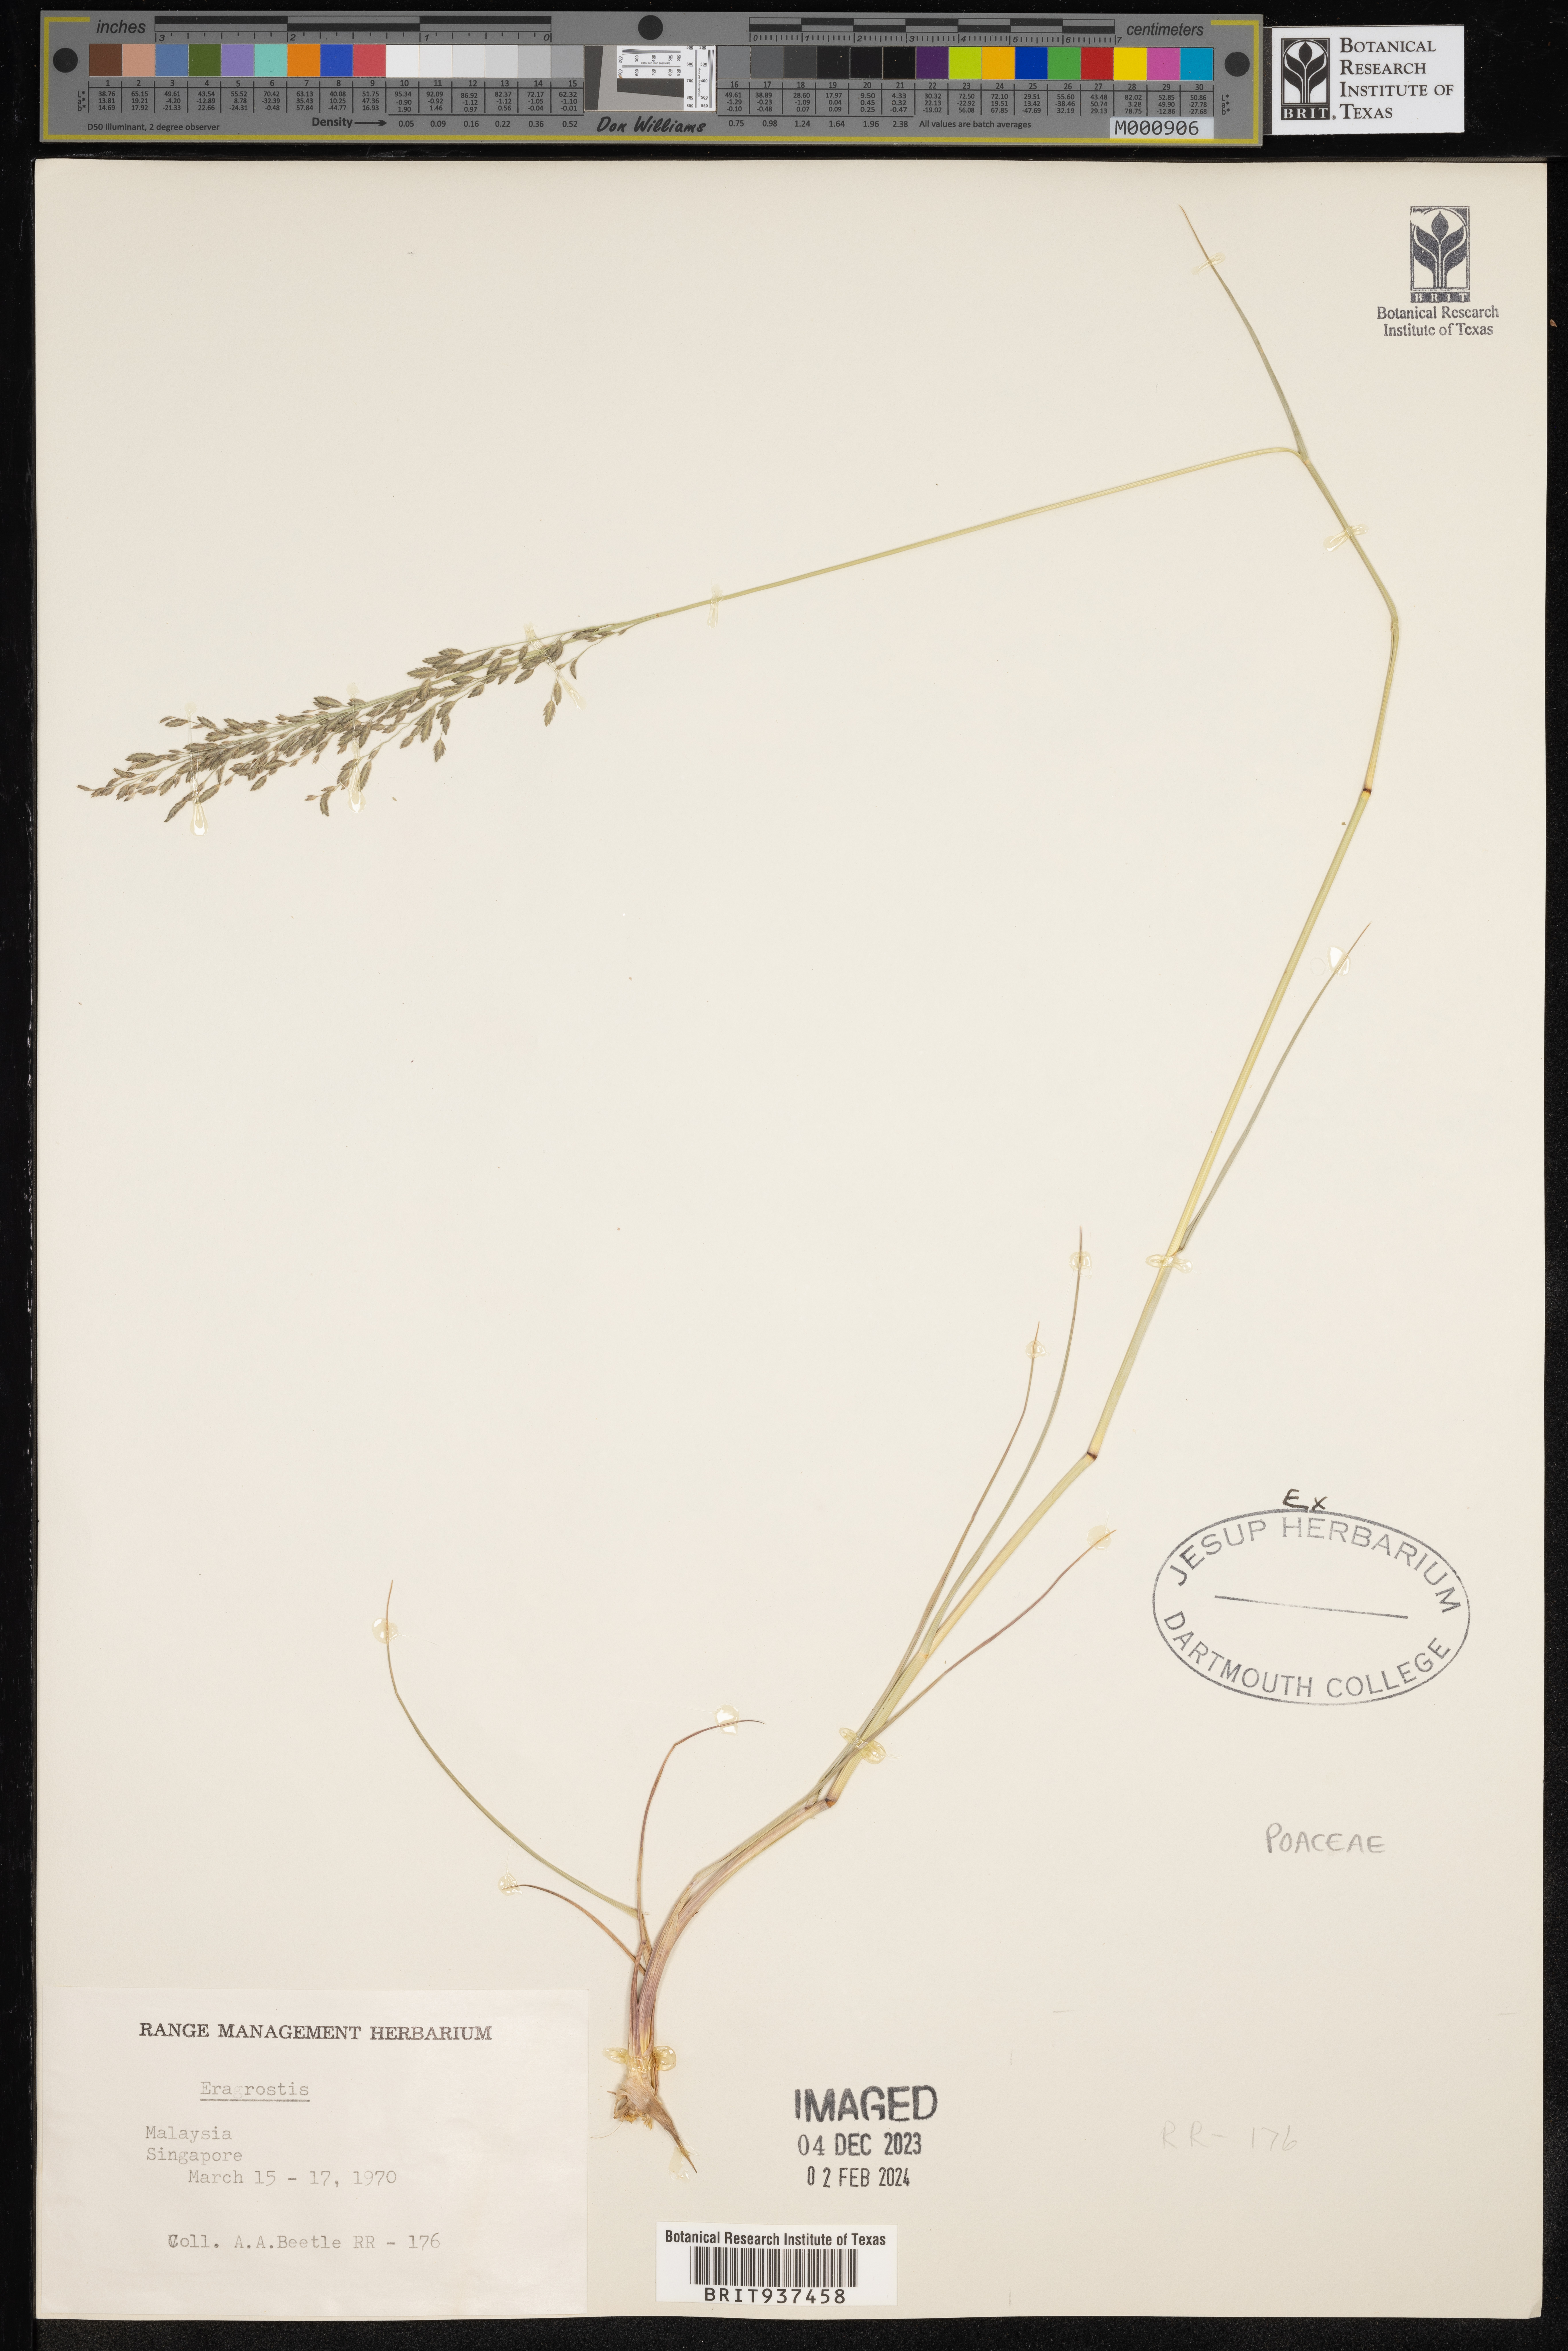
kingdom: Plantae
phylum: Tracheophyta
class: Liliopsida
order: Poales
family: Poaceae
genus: Eragrostis
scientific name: Eragrostis
